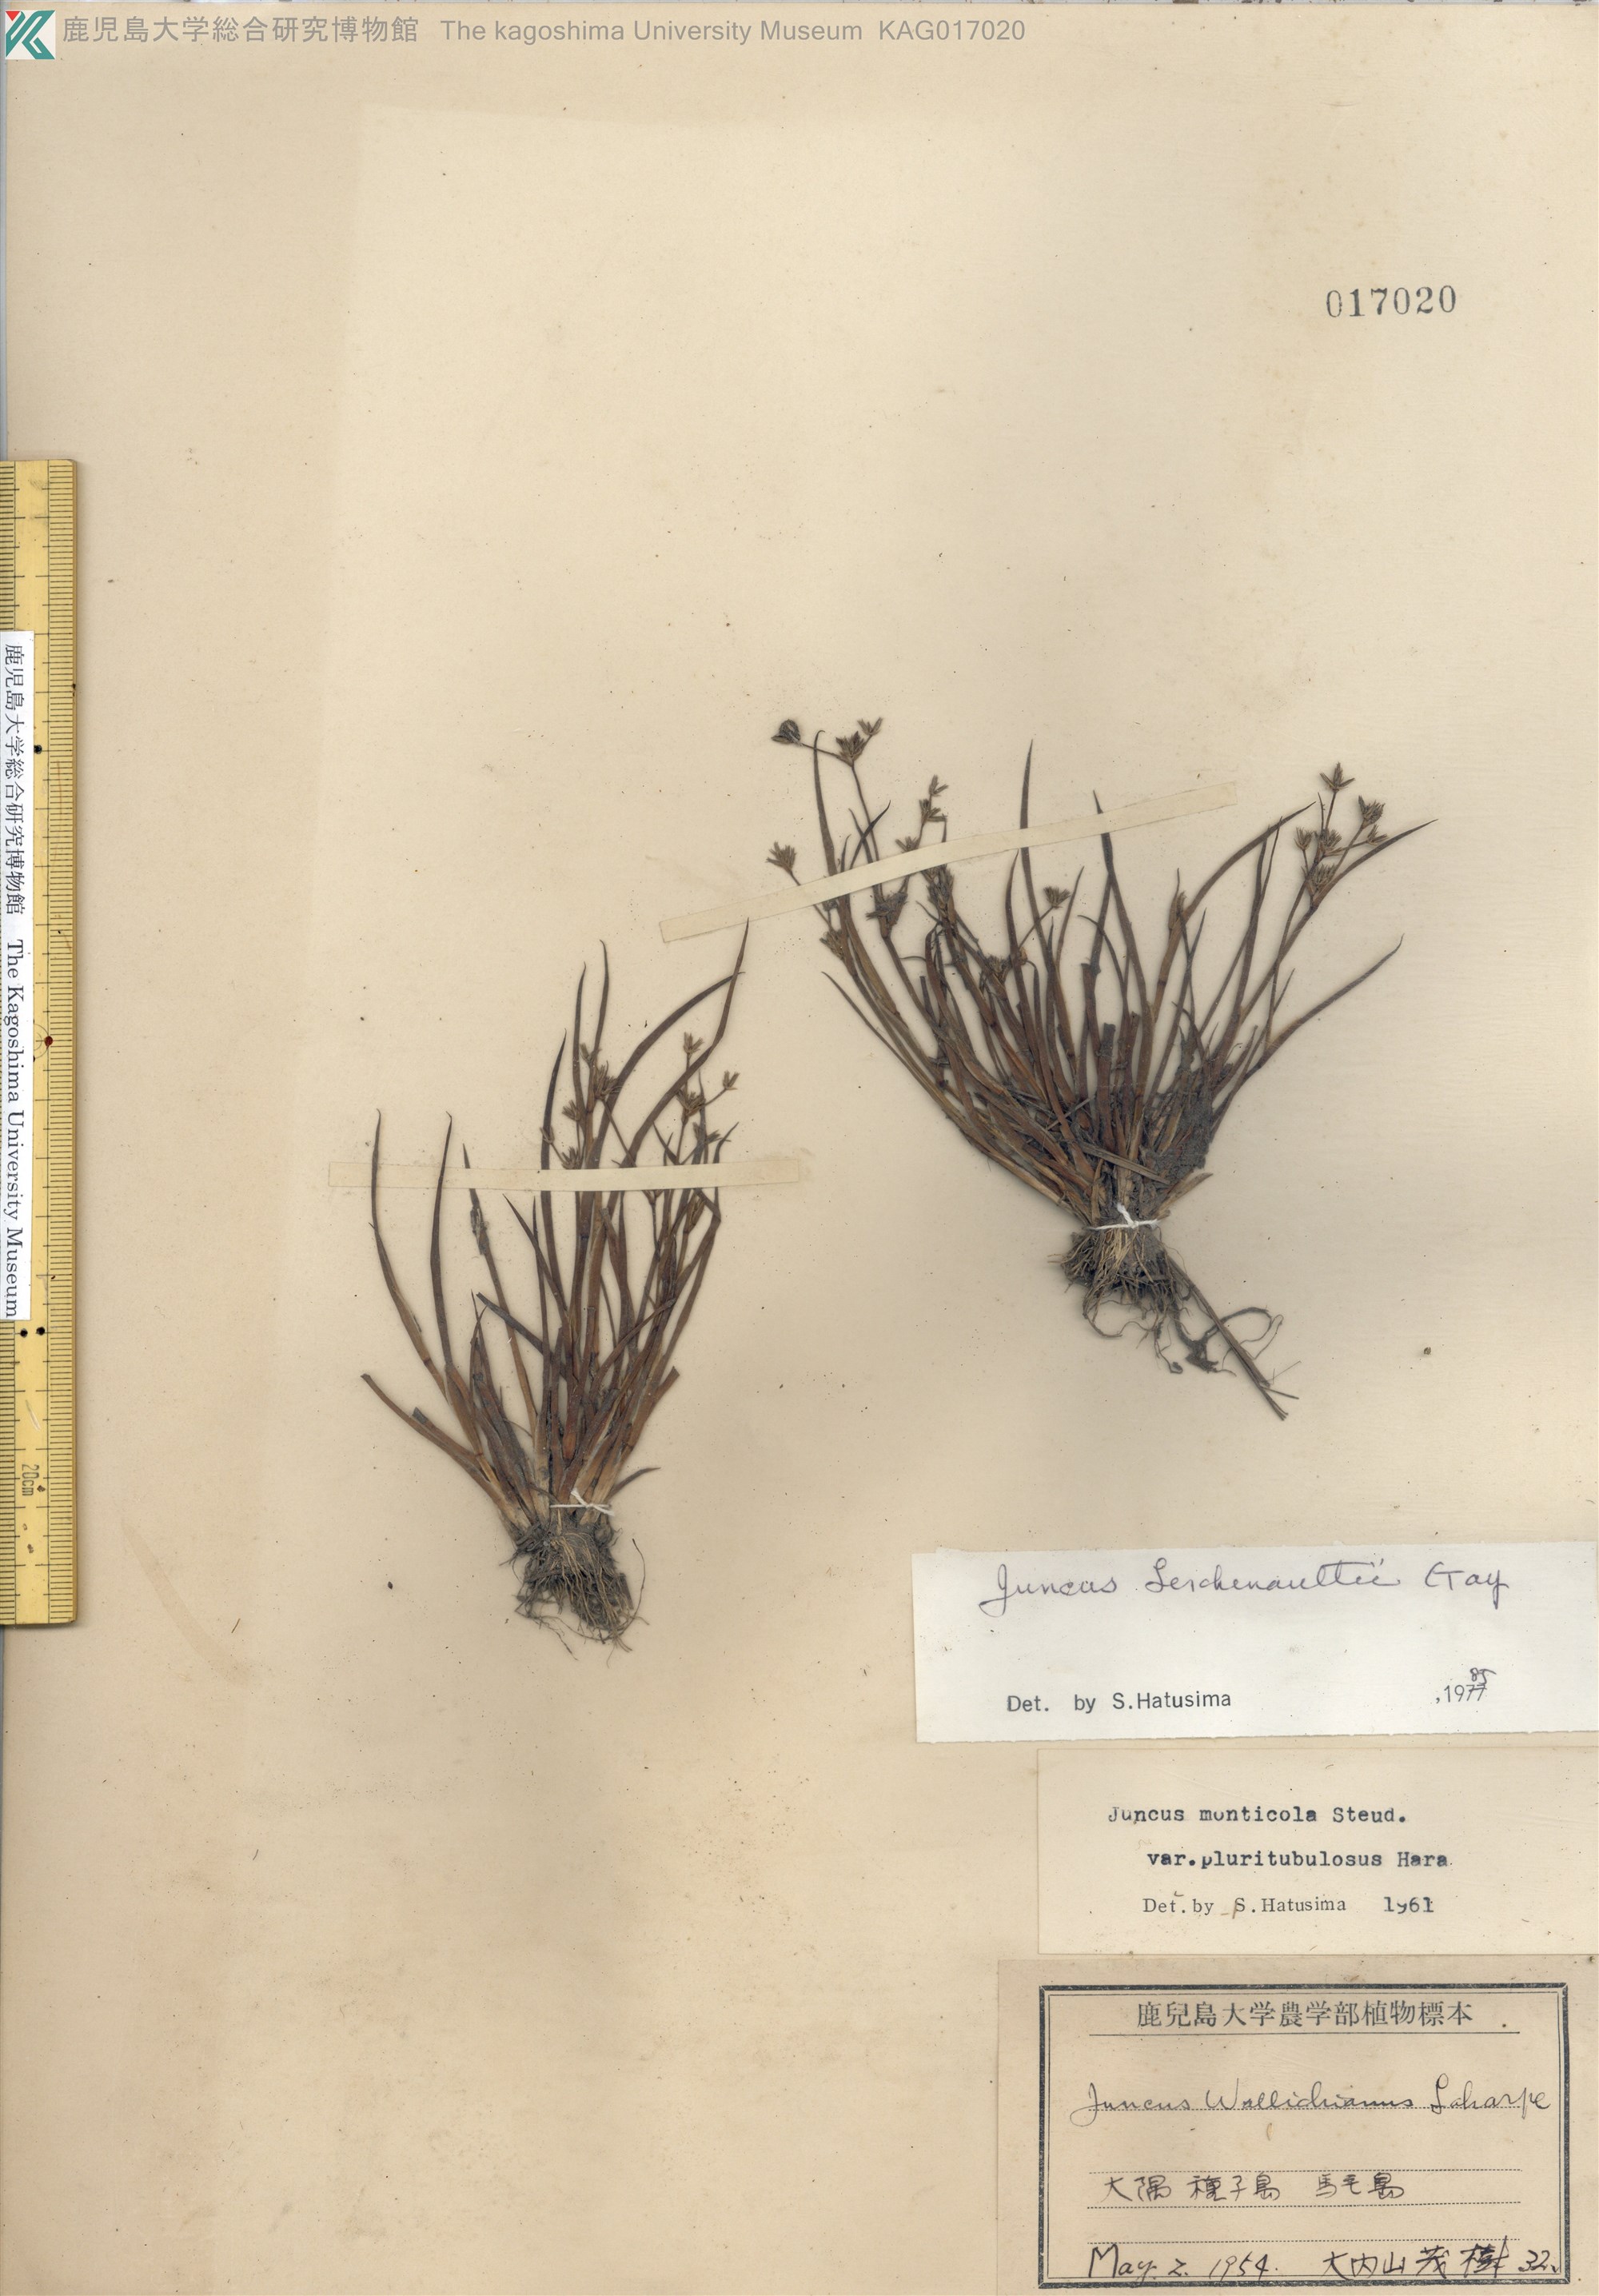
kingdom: Plantae
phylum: Tracheophyta
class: Liliopsida
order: Poales
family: Juncaceae
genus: Juncus
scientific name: Juncus prismatocarpus
